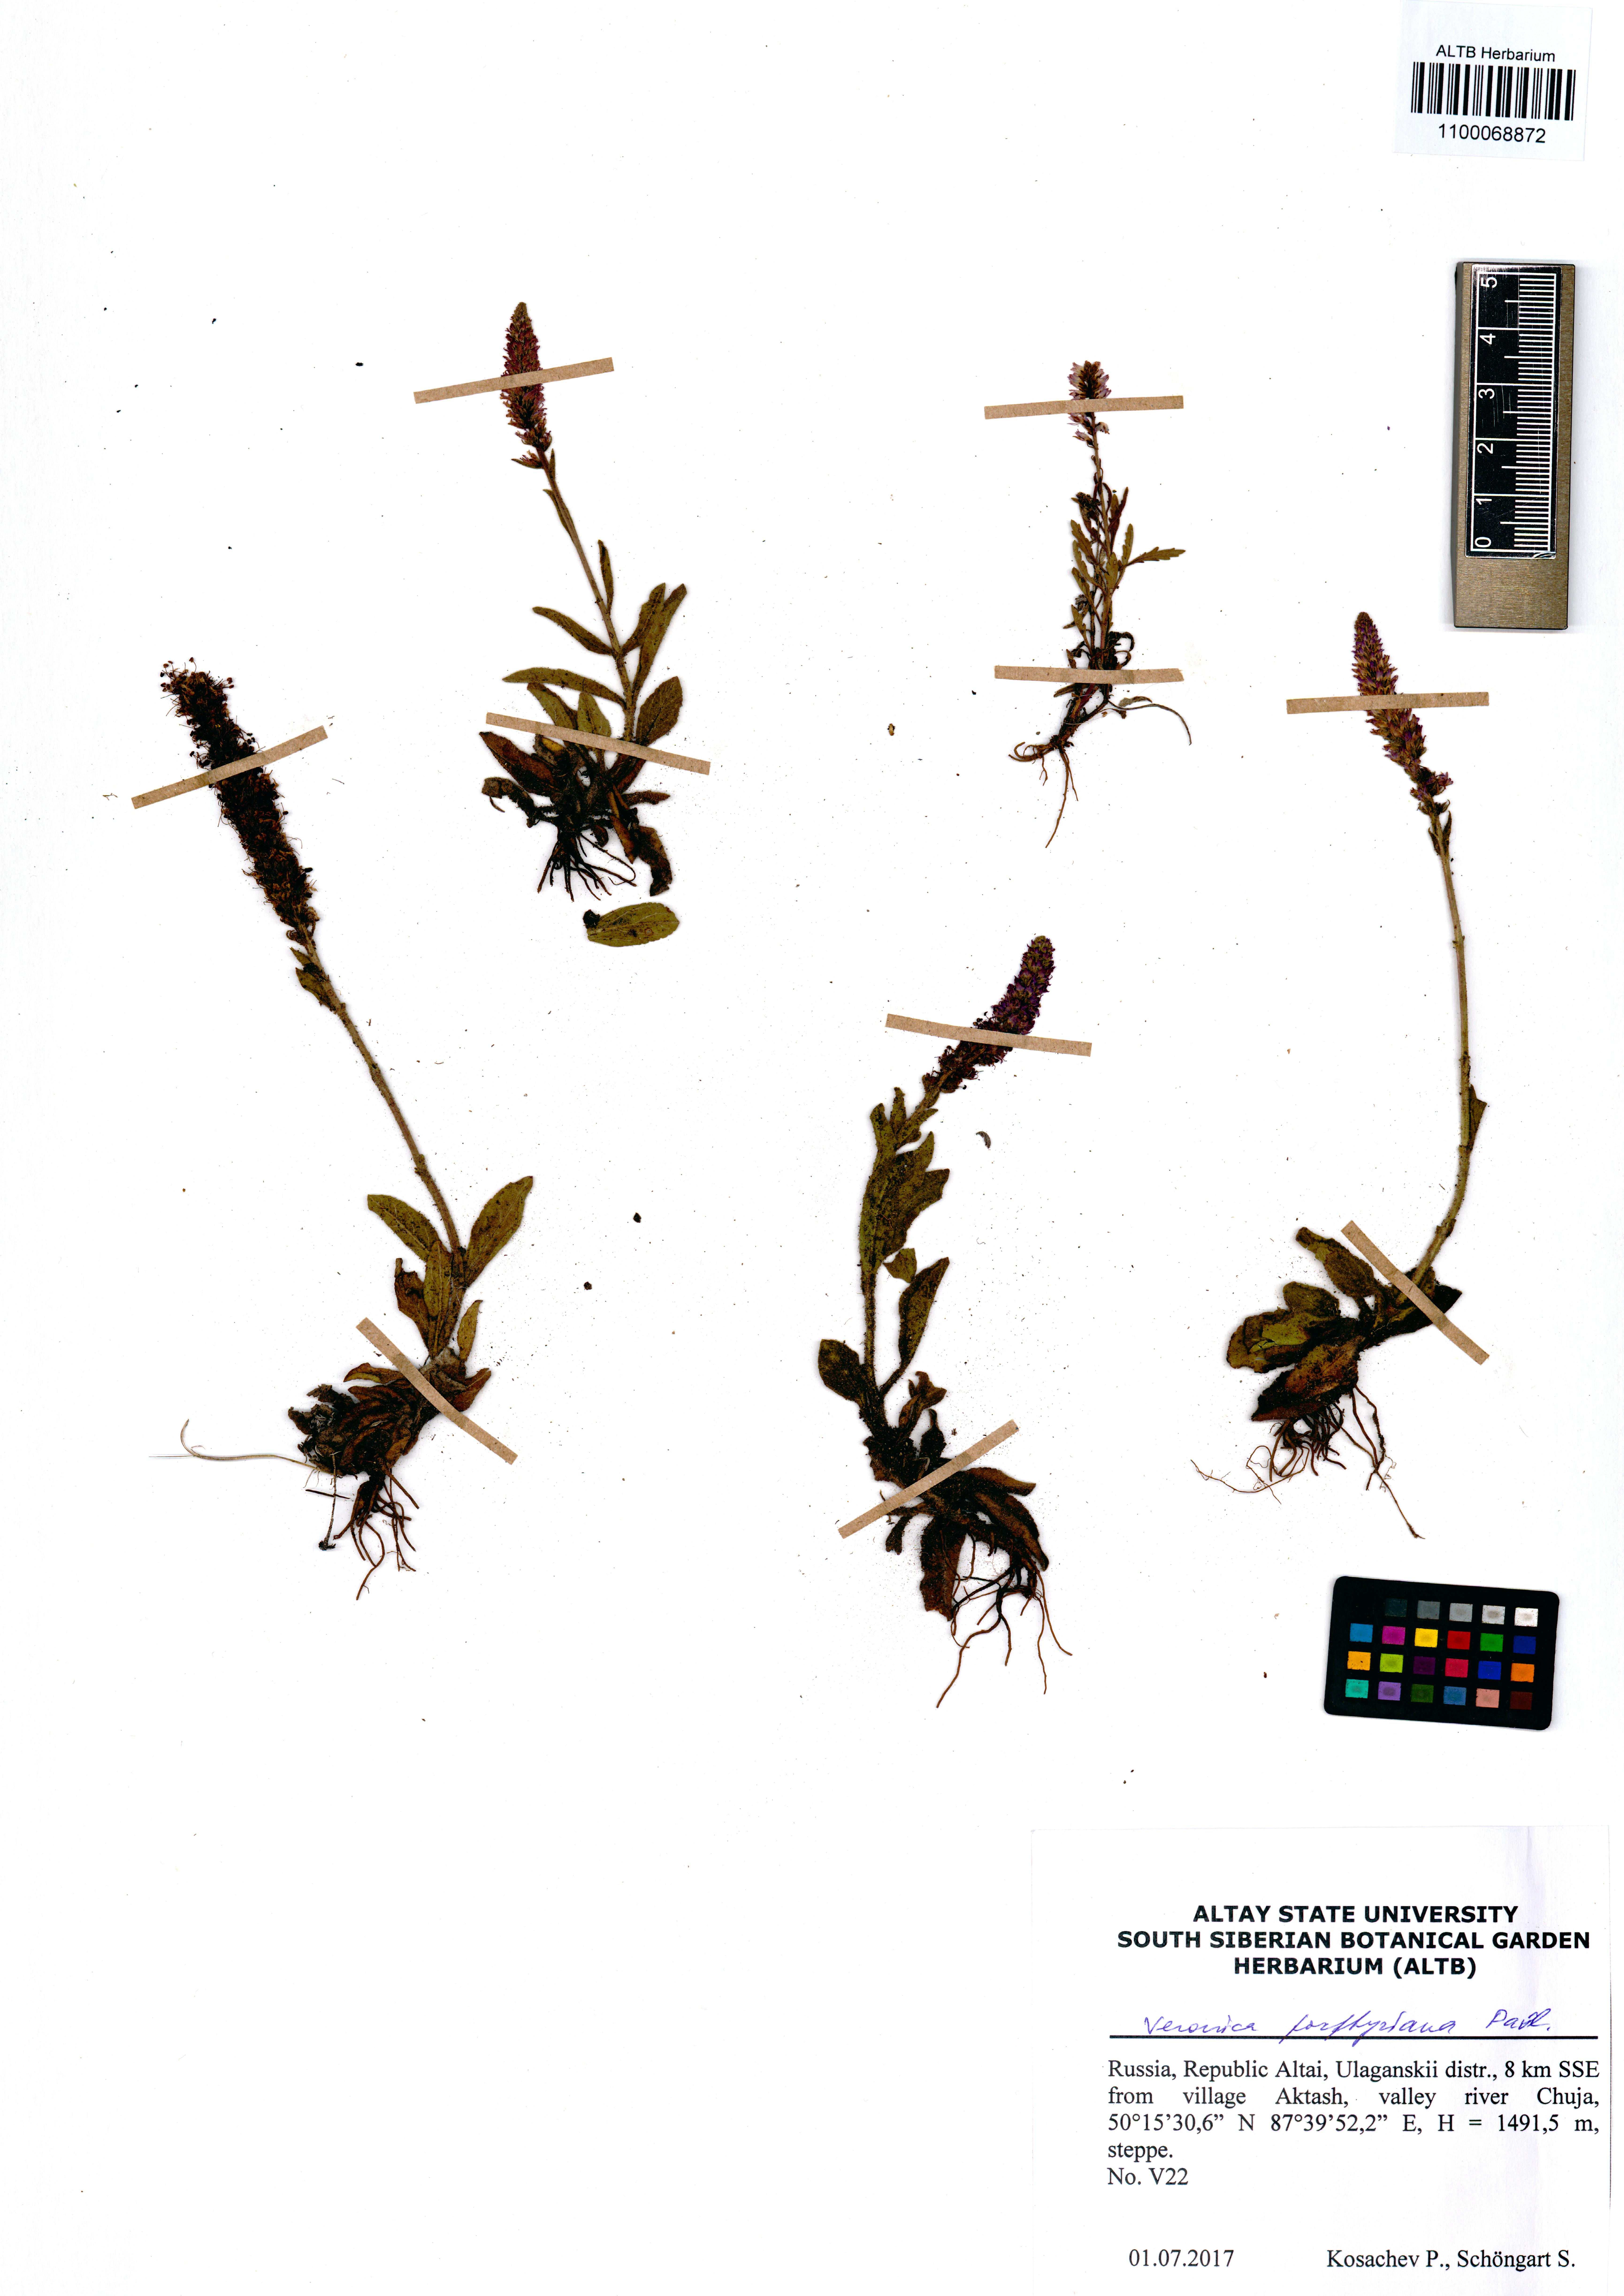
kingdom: Plantae
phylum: Tracheophyta
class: Magnoliopsida
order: Lamiales
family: Plantaginaceae
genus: Veronica
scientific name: Veronica porphyriana
